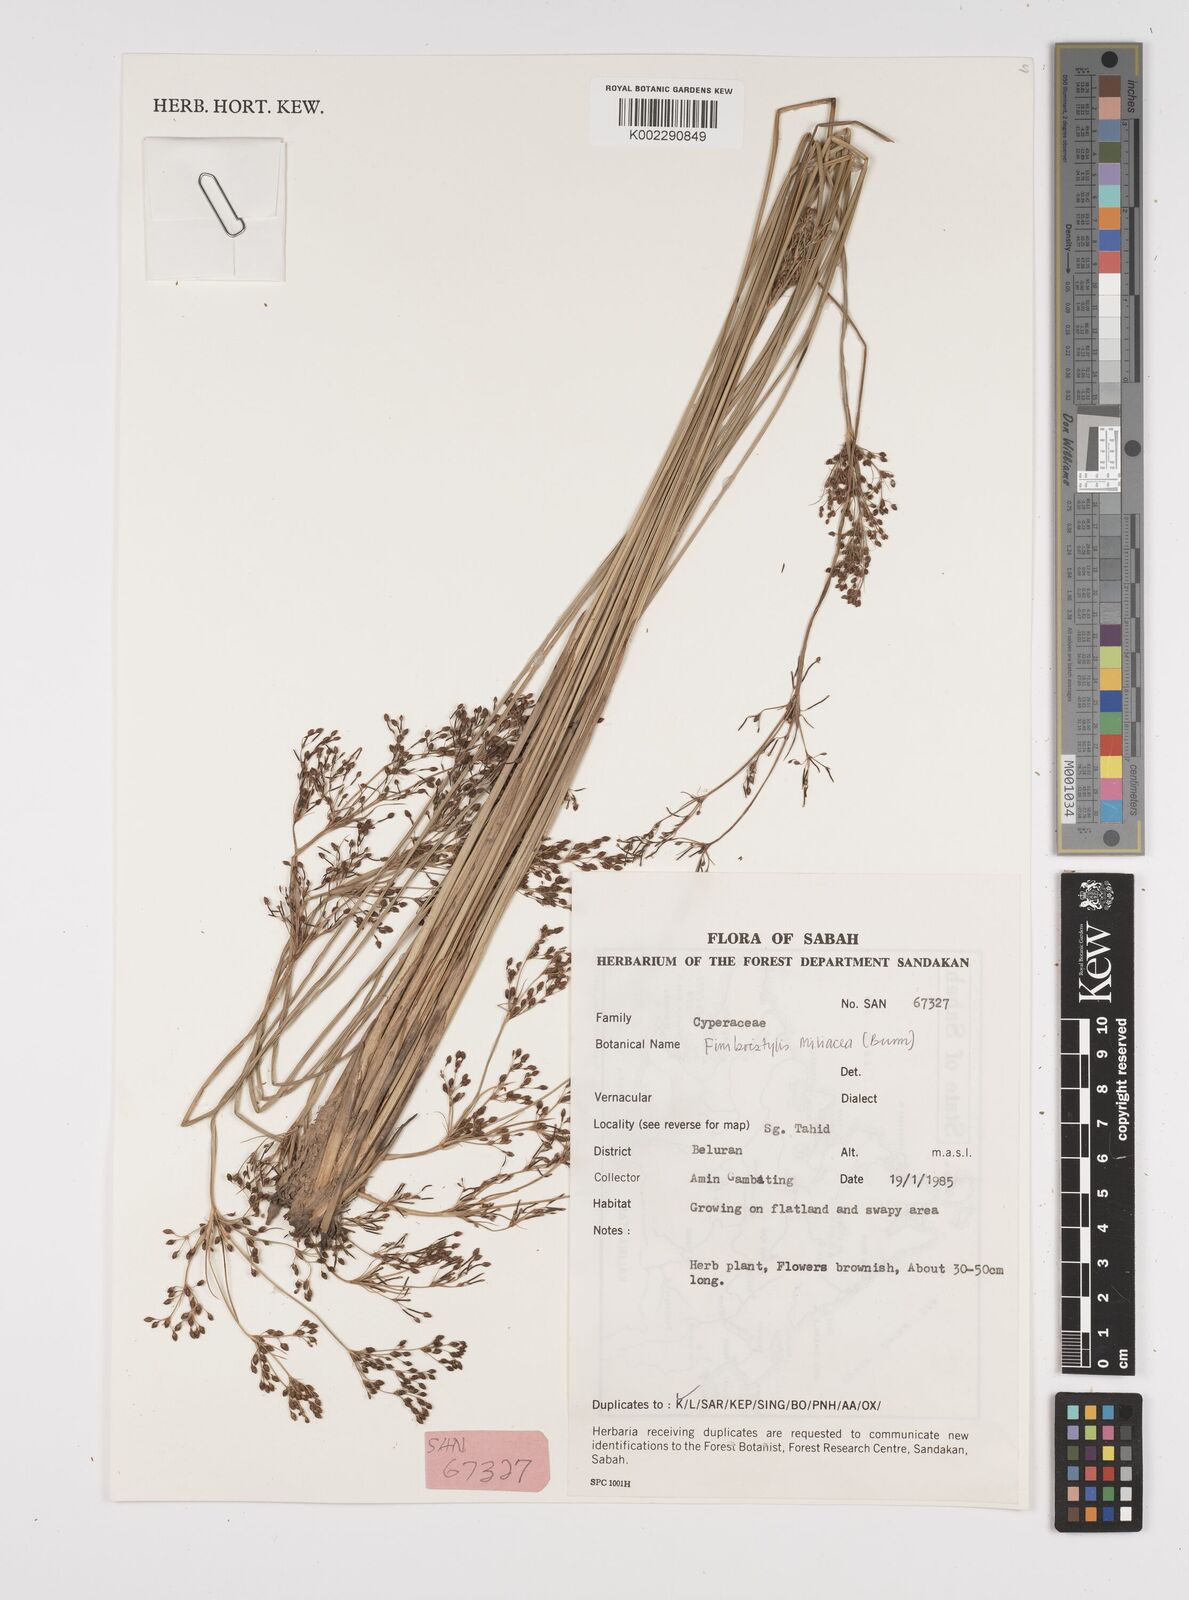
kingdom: Plantae
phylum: Tracheophyta
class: Liliopsida
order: Poales
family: Cyperaceae
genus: Fimbristylis
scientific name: Fimbristylis littoralis
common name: Fimbry
